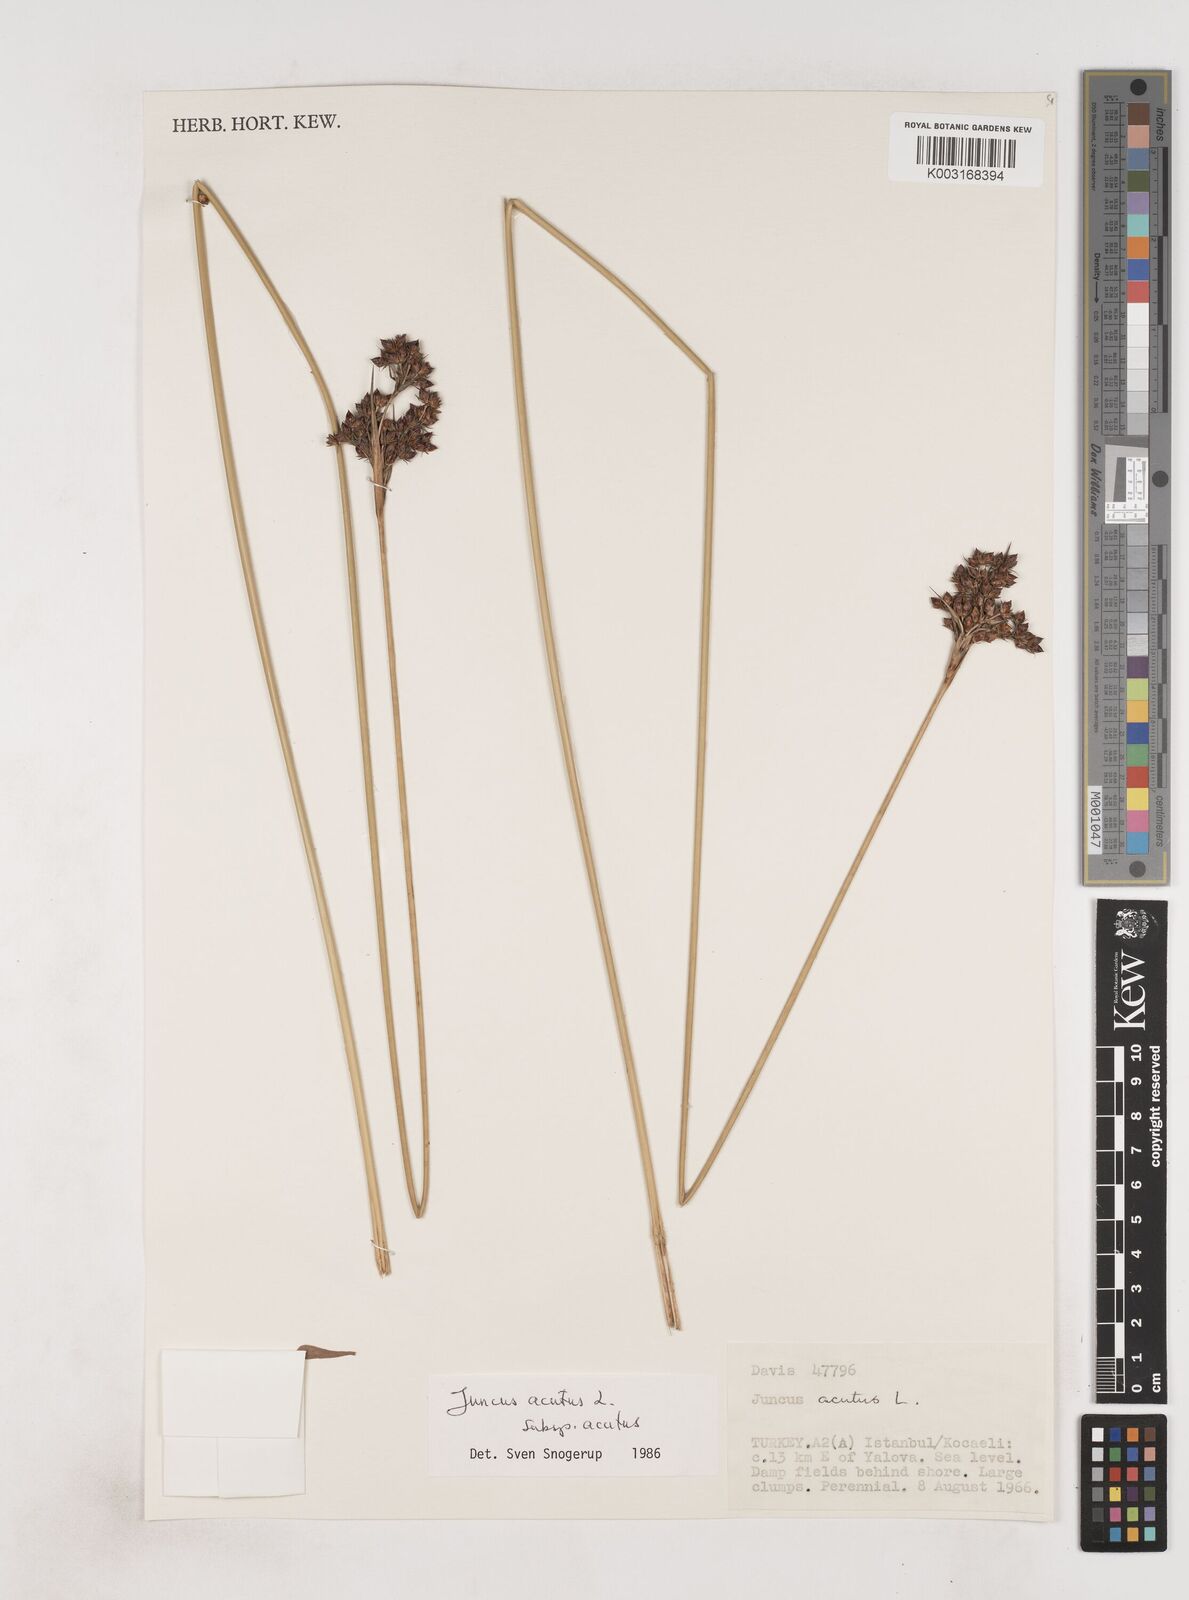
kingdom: Plantae
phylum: Tracheophyta
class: Liliopsida
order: Poales
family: Juncaceae
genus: Juncus
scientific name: Juncus acutus
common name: Sharp rush
